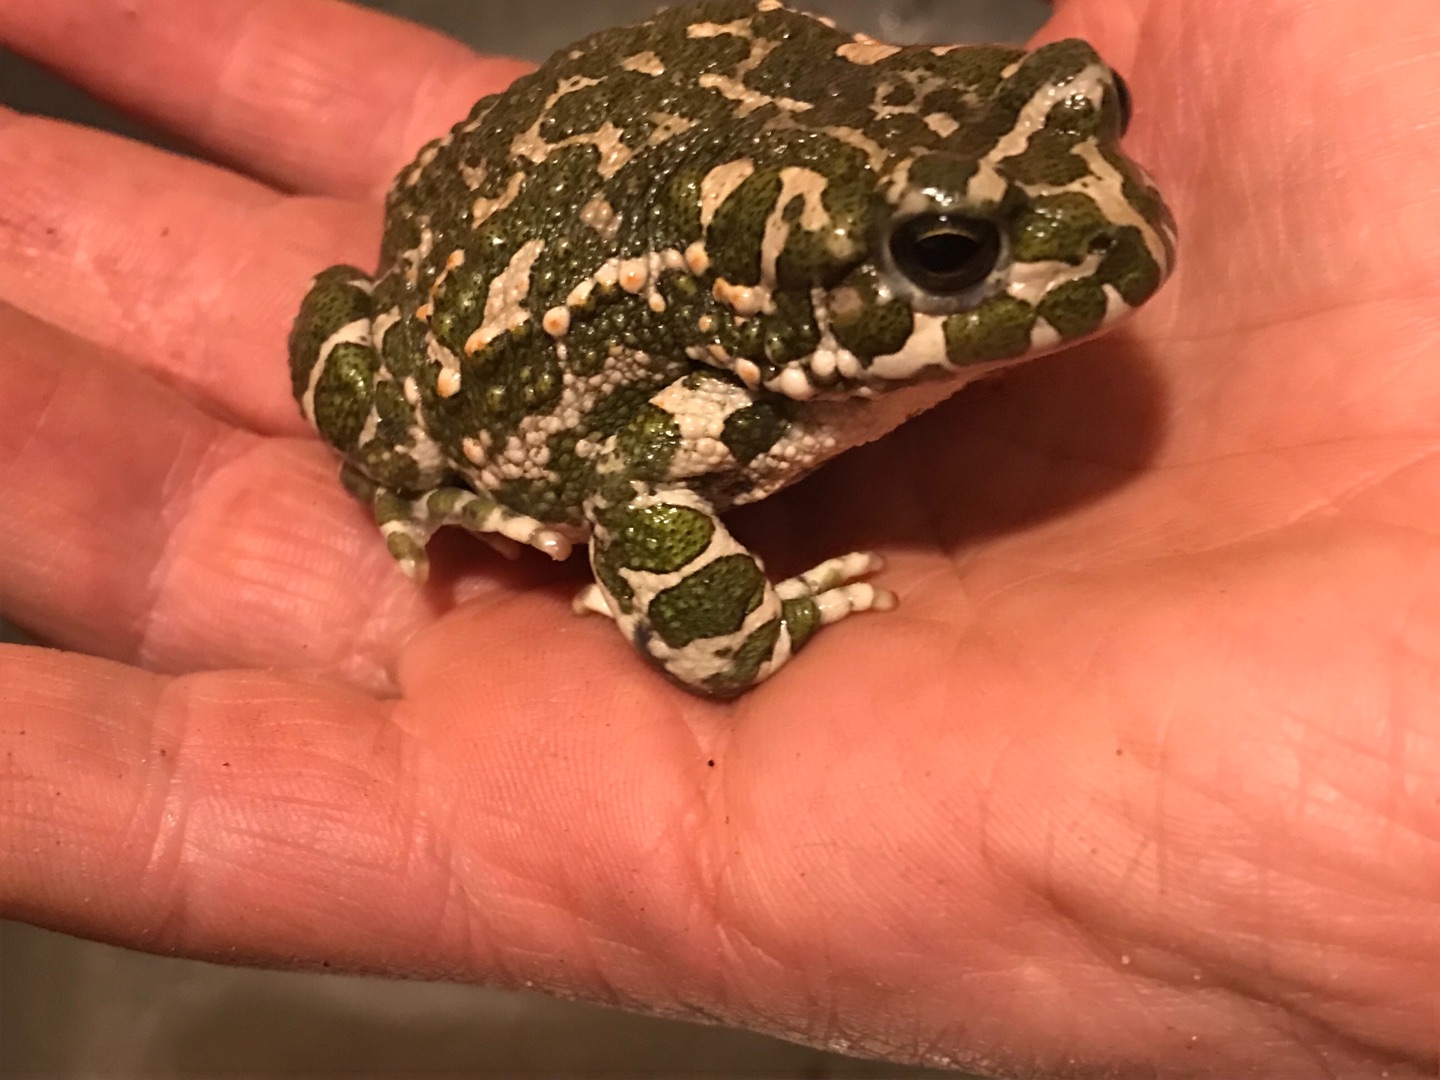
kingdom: Animalia
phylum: Chordata
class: Amphibia
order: Anura
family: Bufonidae
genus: Bufotes
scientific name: Bufotes viridis
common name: Grønbroget tudse
